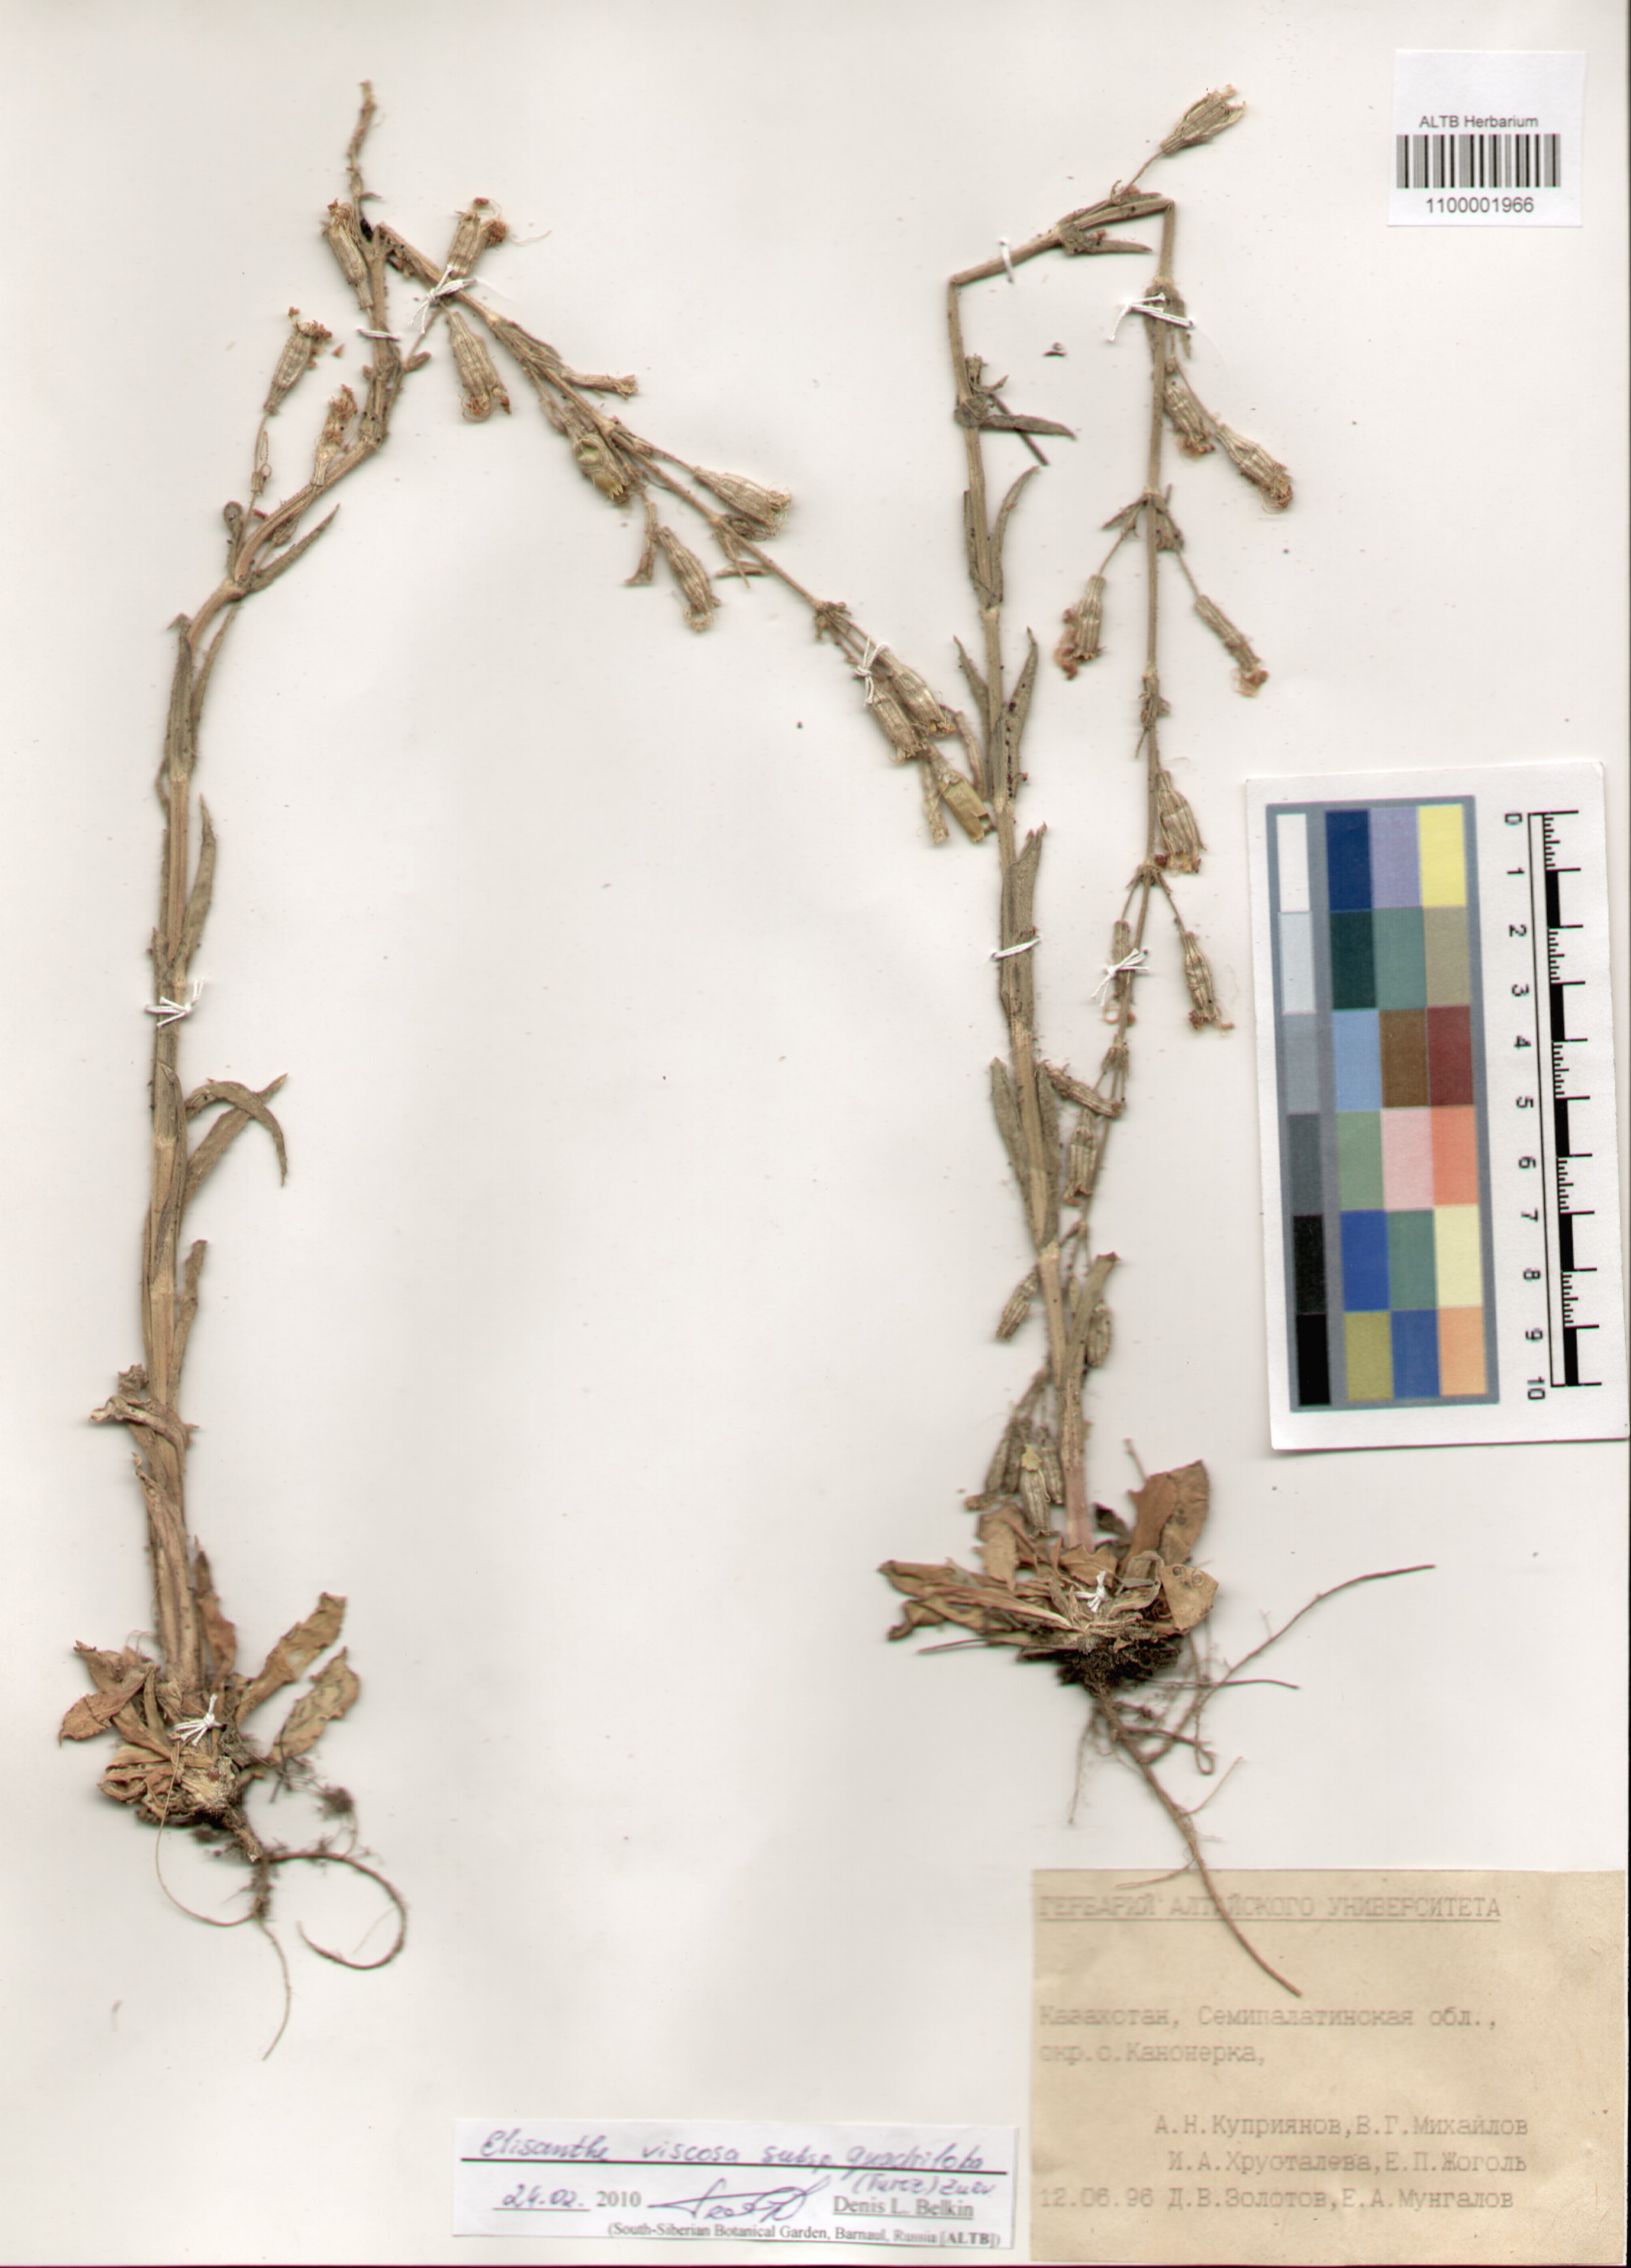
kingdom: Plantae
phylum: Tracheophyta
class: Magnoliopsida
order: Caryophyllales
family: Caryophyllaceae
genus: Silene
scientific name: Silene viscosa
